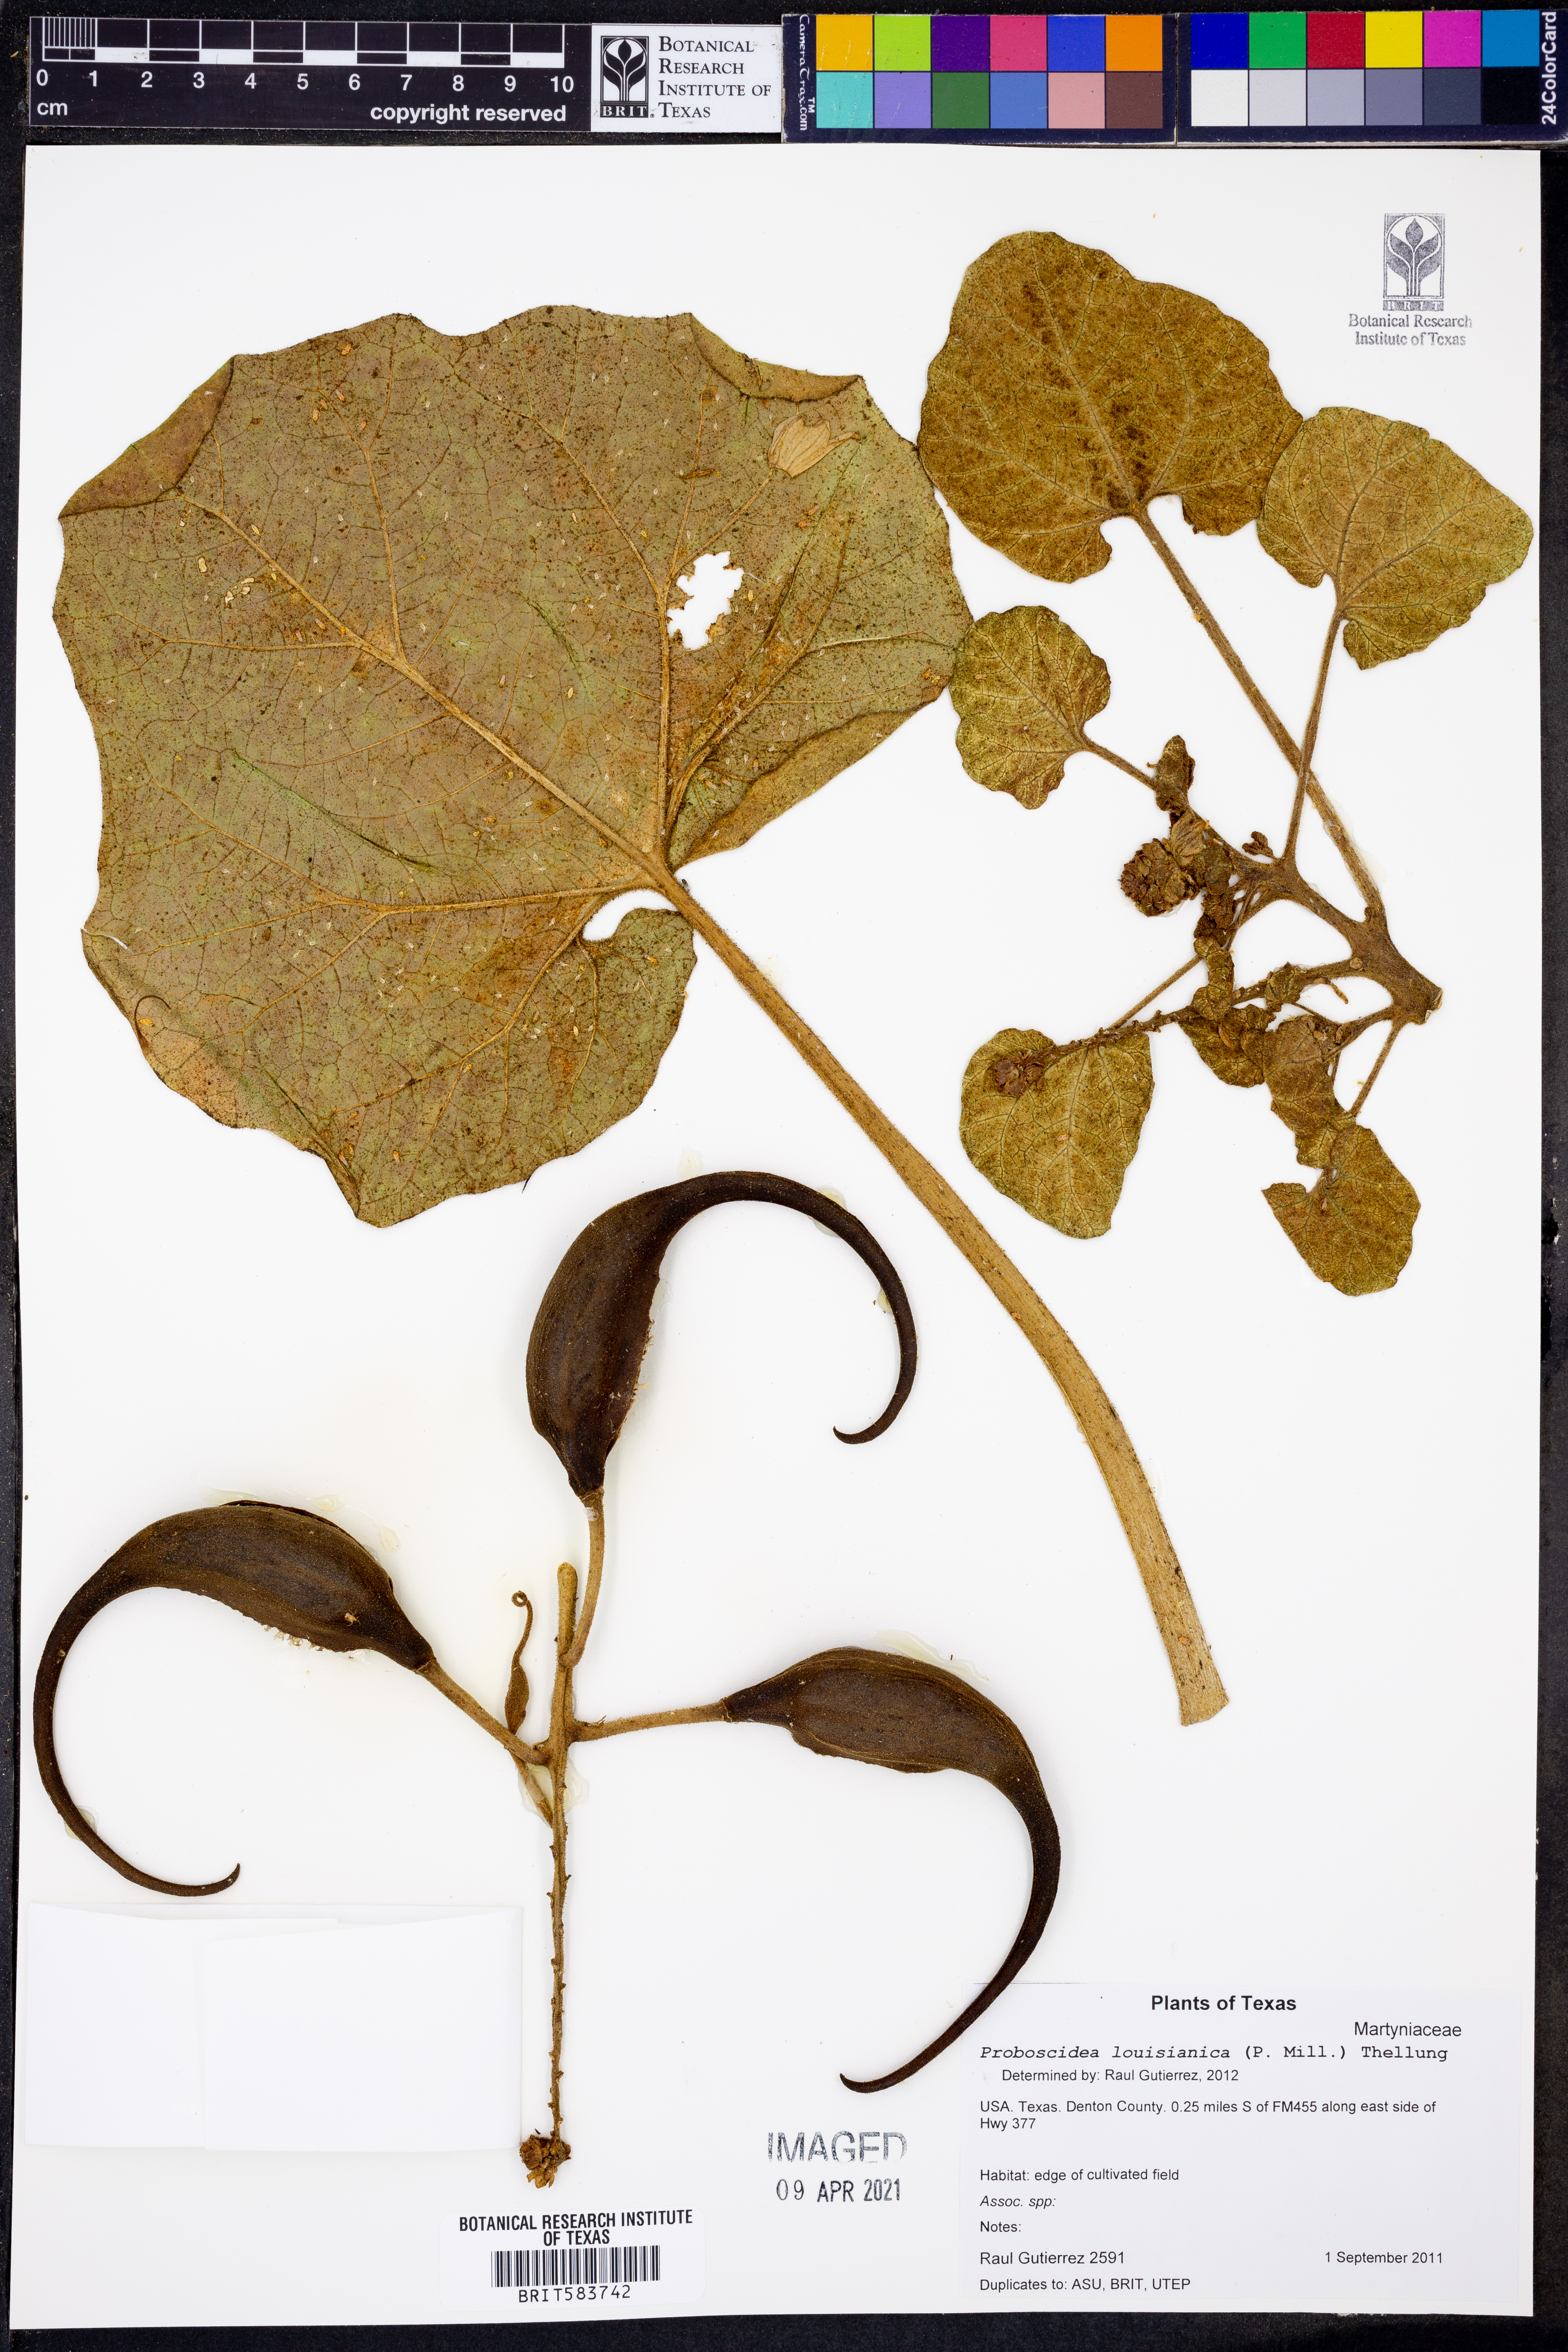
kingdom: Plantae
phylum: Tracheophyta
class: Magnoliopsida
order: Lamiales
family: Martyniaceae
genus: Proboscidea
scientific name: Proboscidea louisianica
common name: Elephant tusks
